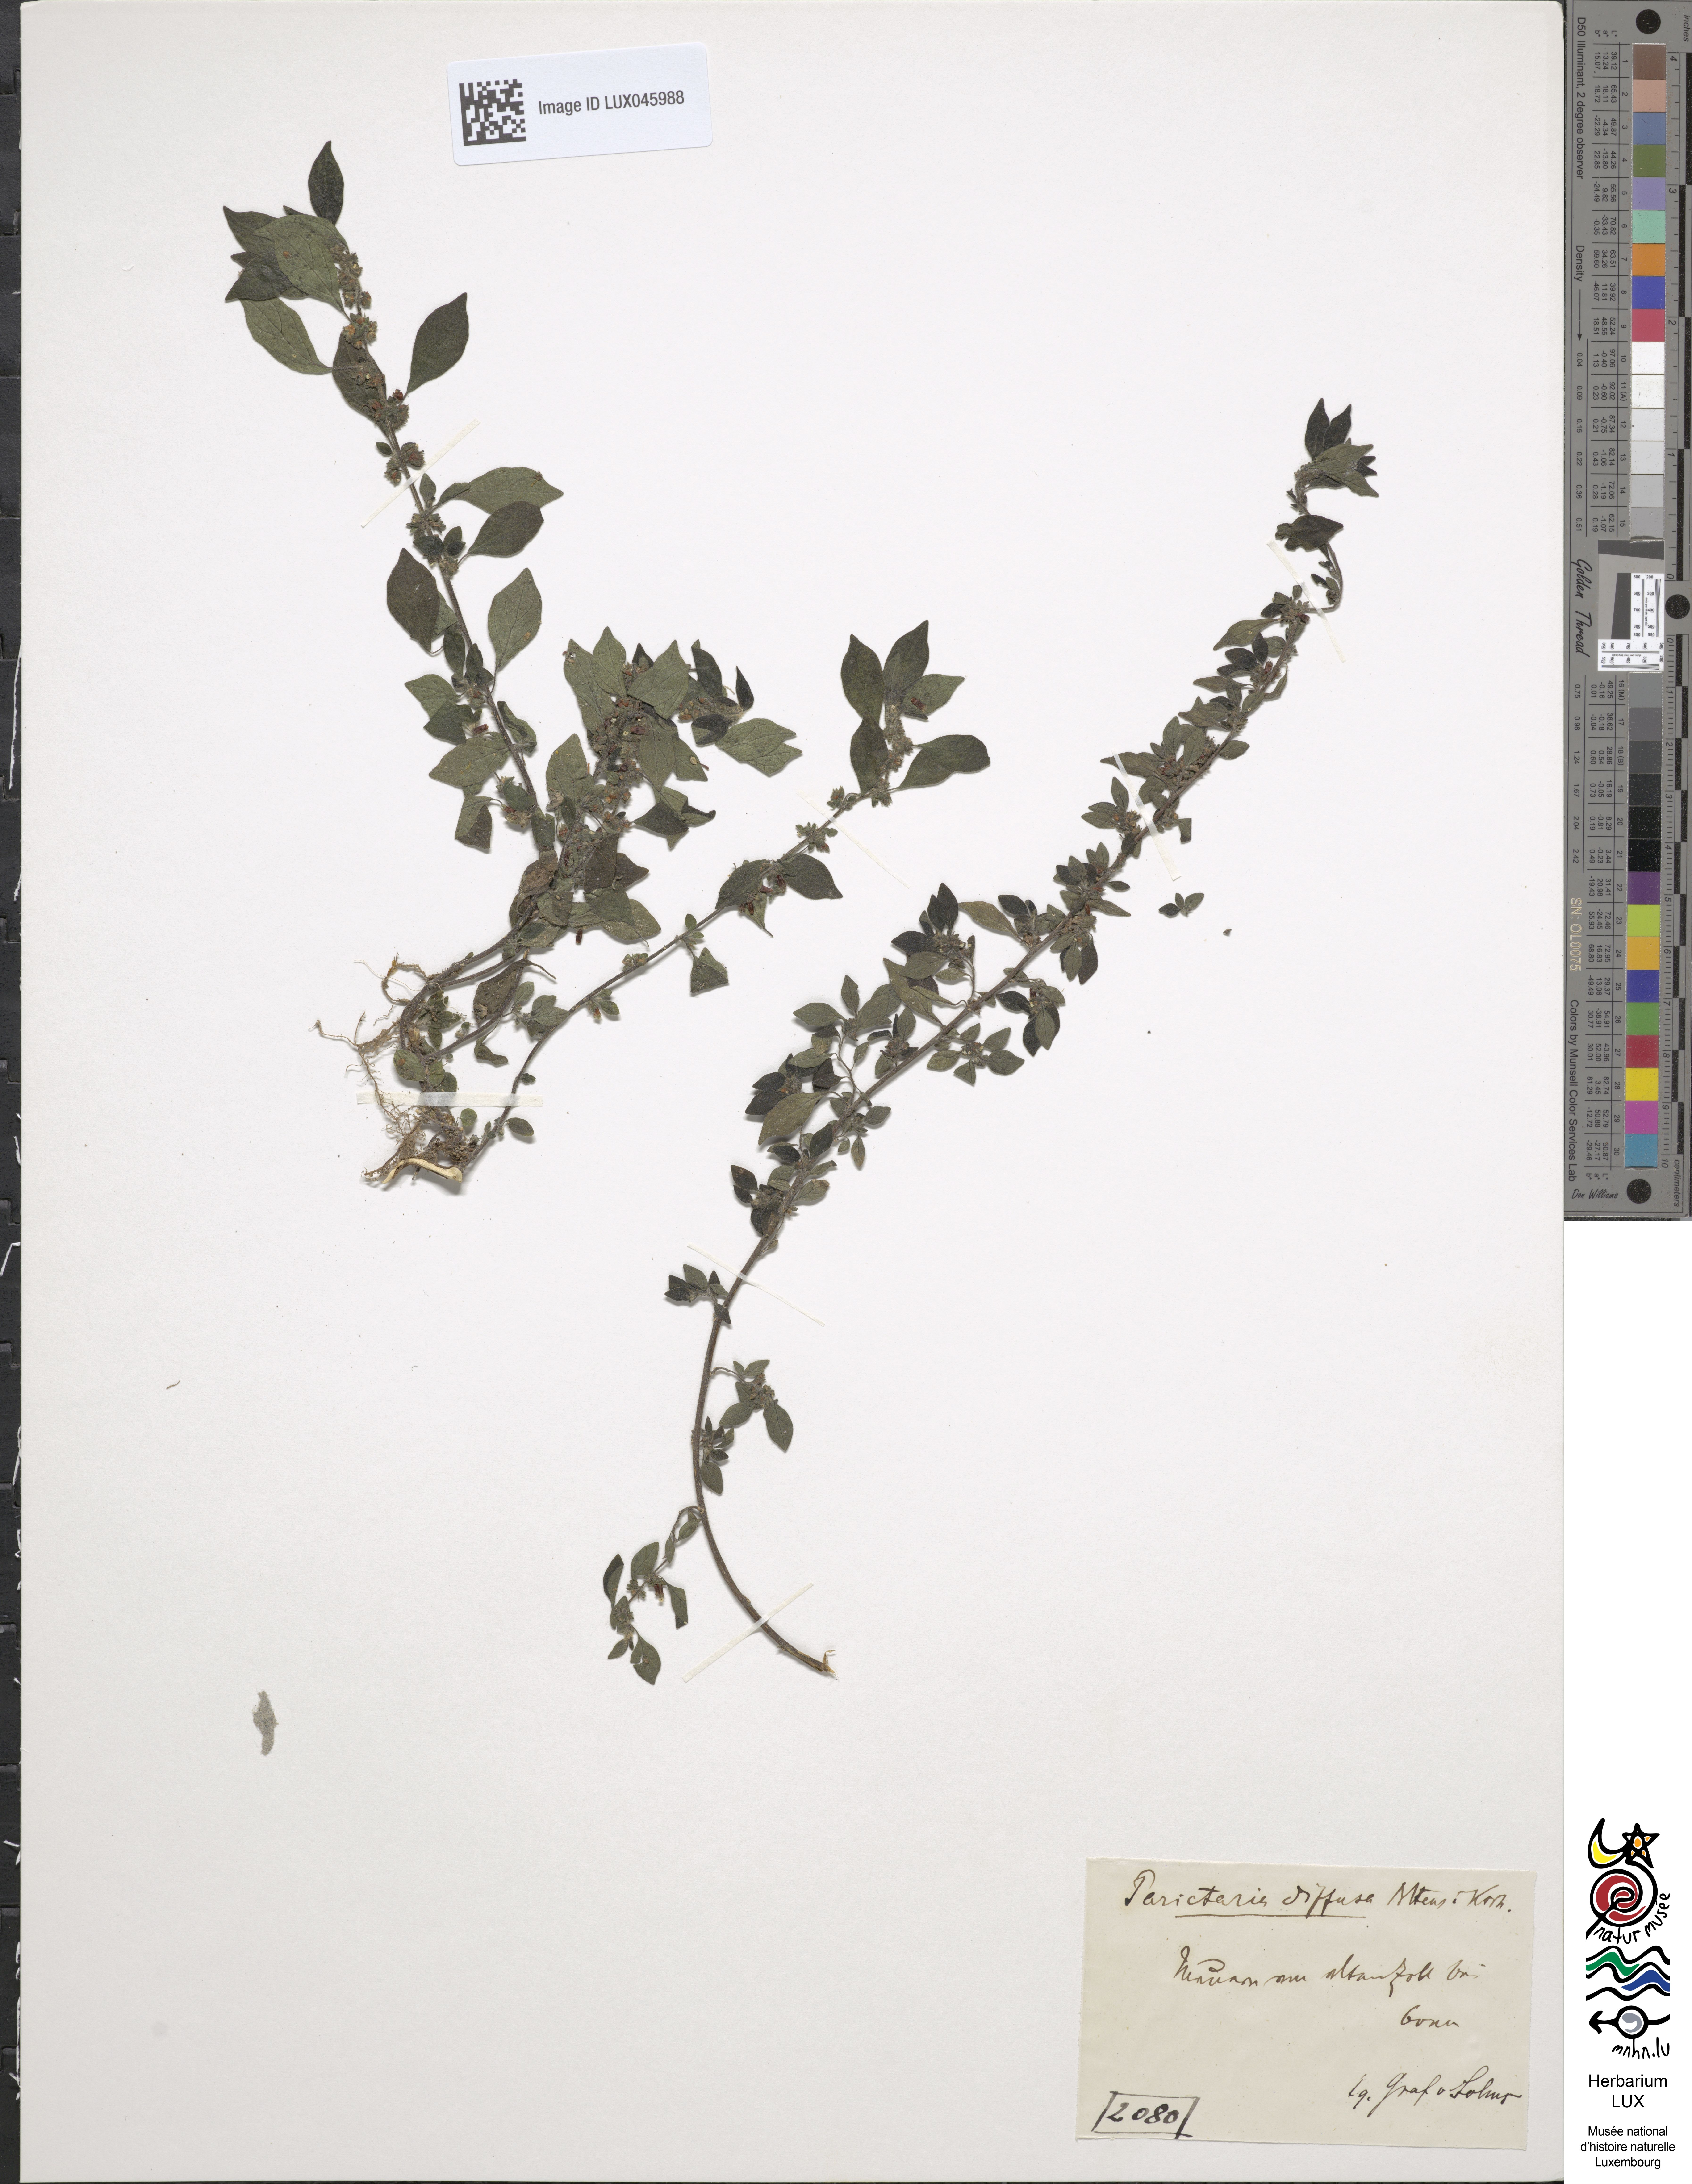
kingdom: Plantae
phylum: Tracheophyta
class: Magnoliopsida
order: Rosales
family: Urticaceae
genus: Parietaria
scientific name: Parietaria judaica
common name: Pellitory-of-the-wall
